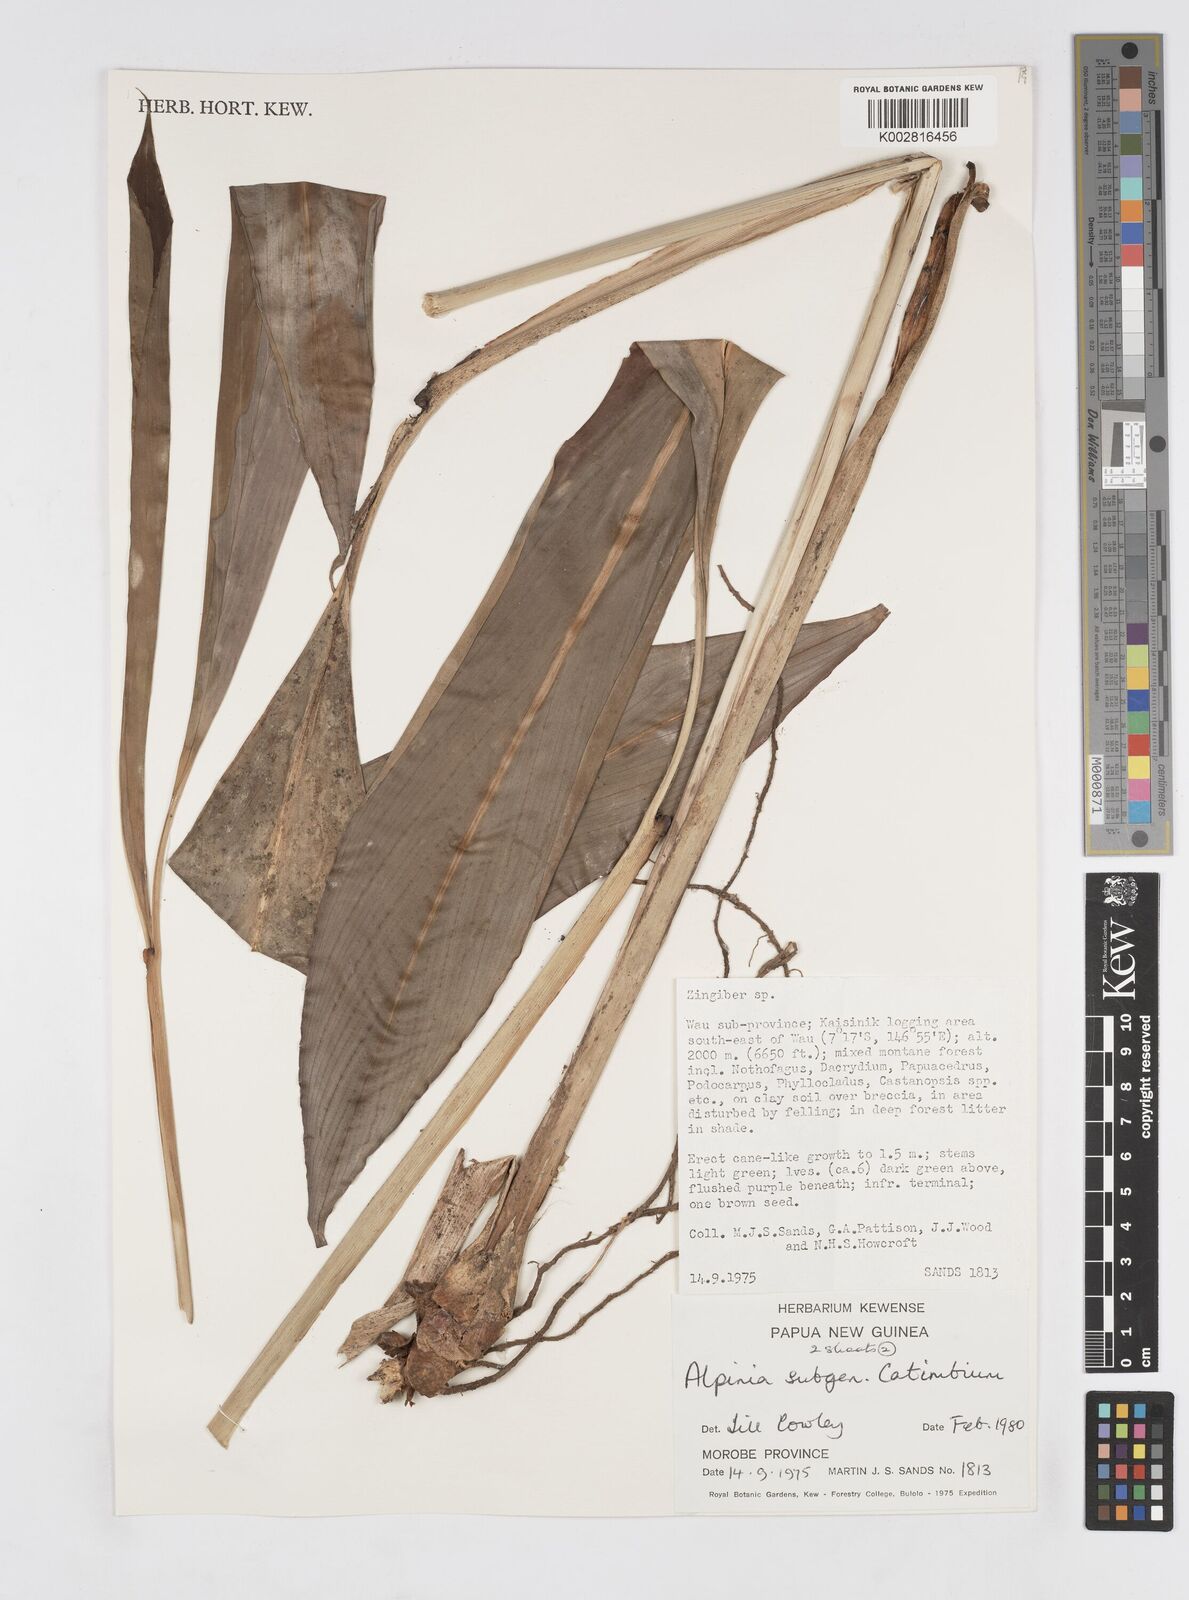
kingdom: Plantae
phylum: Tracheophyta
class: Liliopsida
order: Zingiberales
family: Zingiberaceae
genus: Alpinia
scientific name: Alpinia
